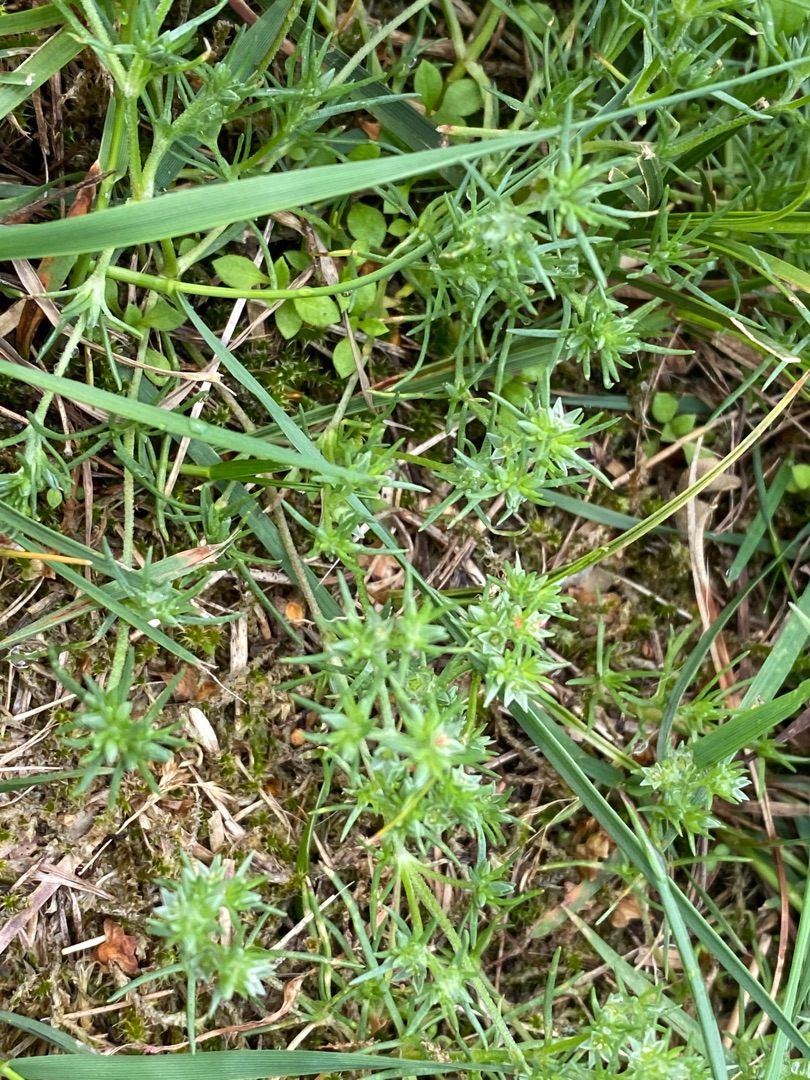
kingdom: Plantae
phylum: Tracheophyta
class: Magnoliopsida
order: Caryophyllales
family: Caryophyllaceae
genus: Scleranthus
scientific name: Scleranthus annuus
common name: Enårig knavel (underart)
